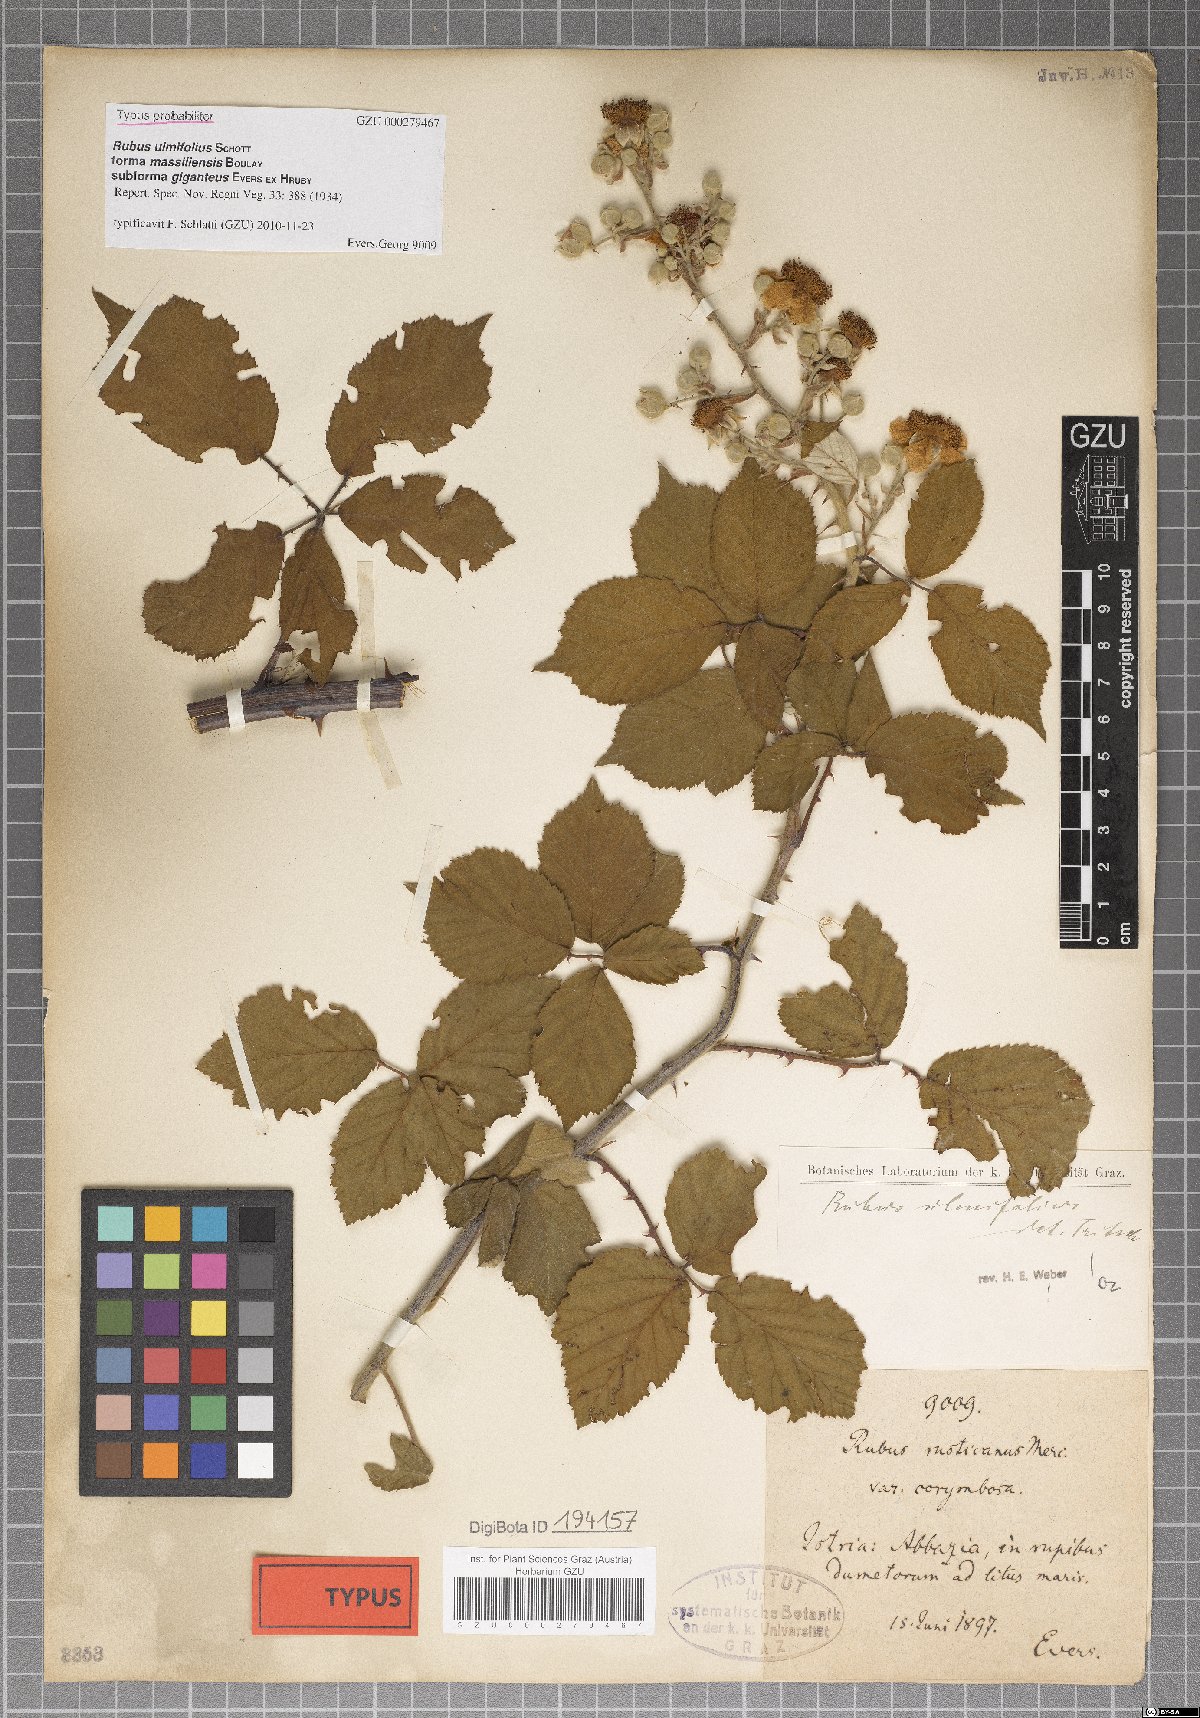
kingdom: Plantae
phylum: Tracheophyta
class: Magnoliopsida
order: Rosales
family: Rosaceae
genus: Rubus
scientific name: Rubus ulmifolius
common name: Elmleaf blackberry
